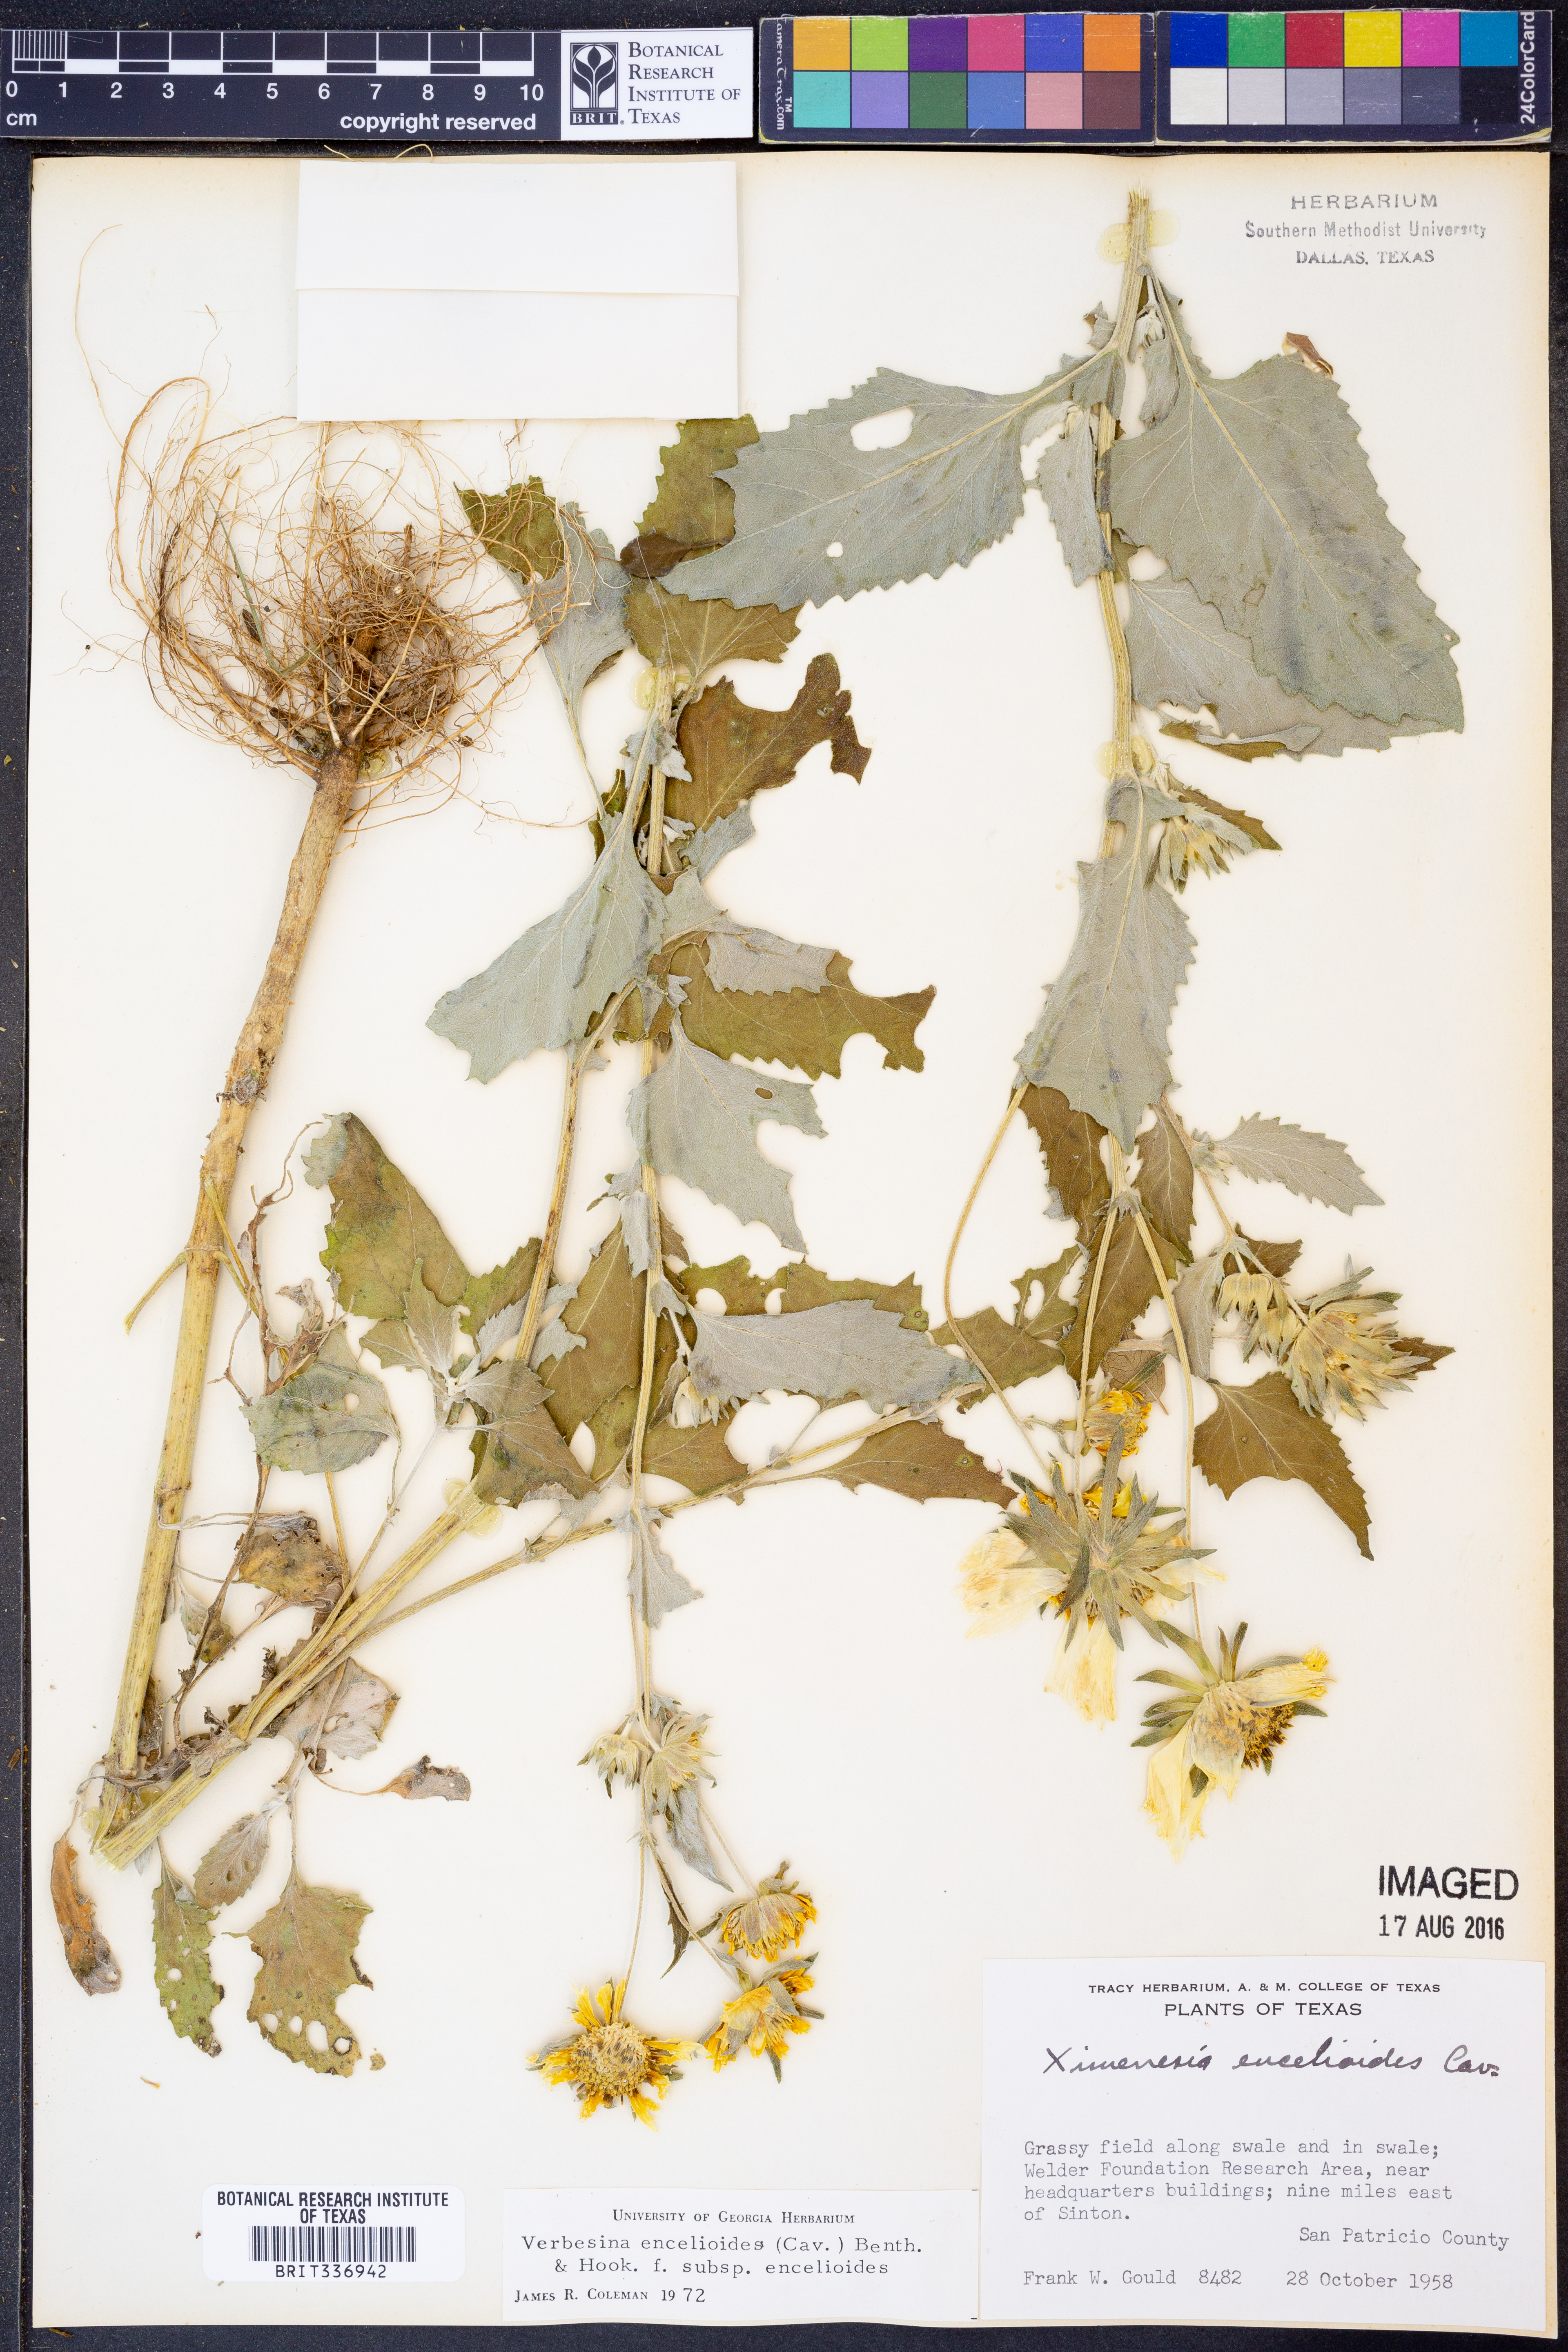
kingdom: Plantae
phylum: Tracheophyta
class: Magnoliopsida
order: Asterales
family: Asteraceae
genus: Verbesina
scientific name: Verbesina encelioides
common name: Golden crownbeard
